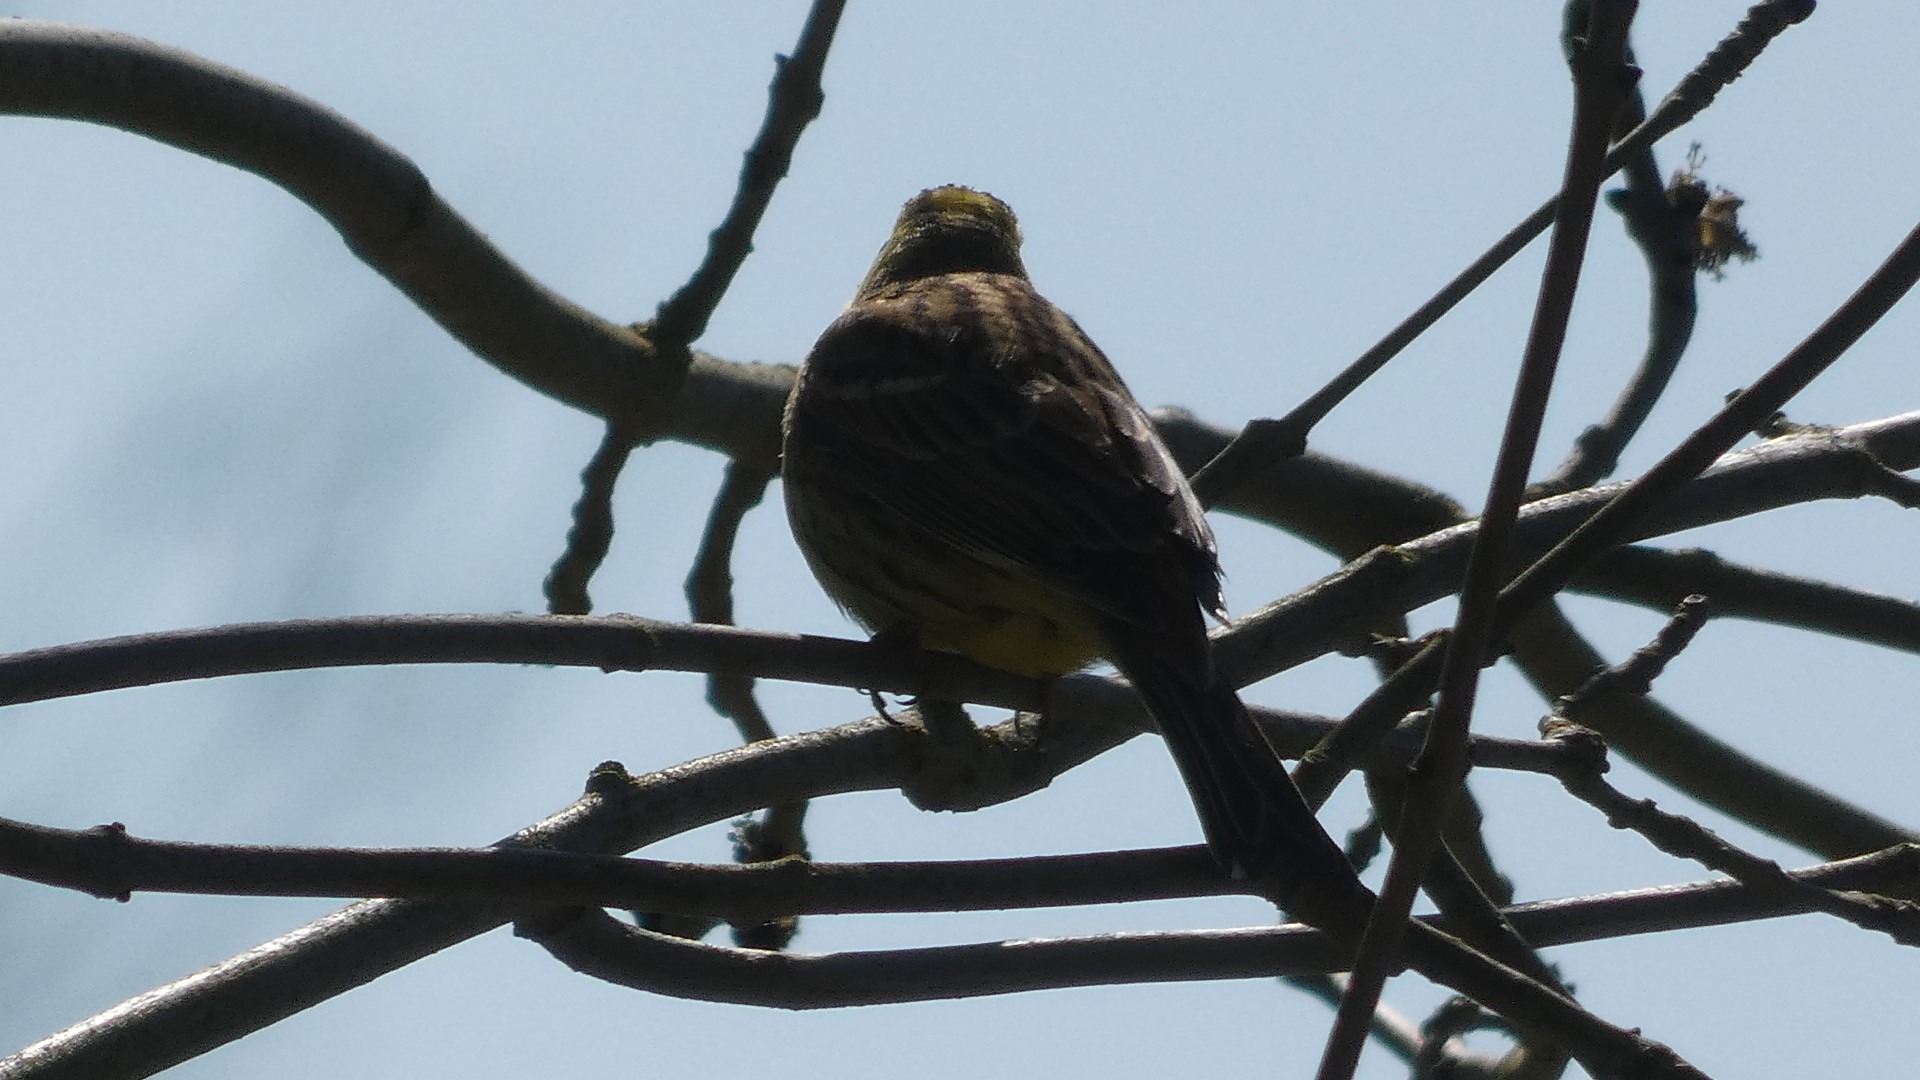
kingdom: Animalia
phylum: Chordata
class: Aves
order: Passeriformes
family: Emberizidae
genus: Emberiza
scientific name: Emberiza citrinella
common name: Gulspurv
